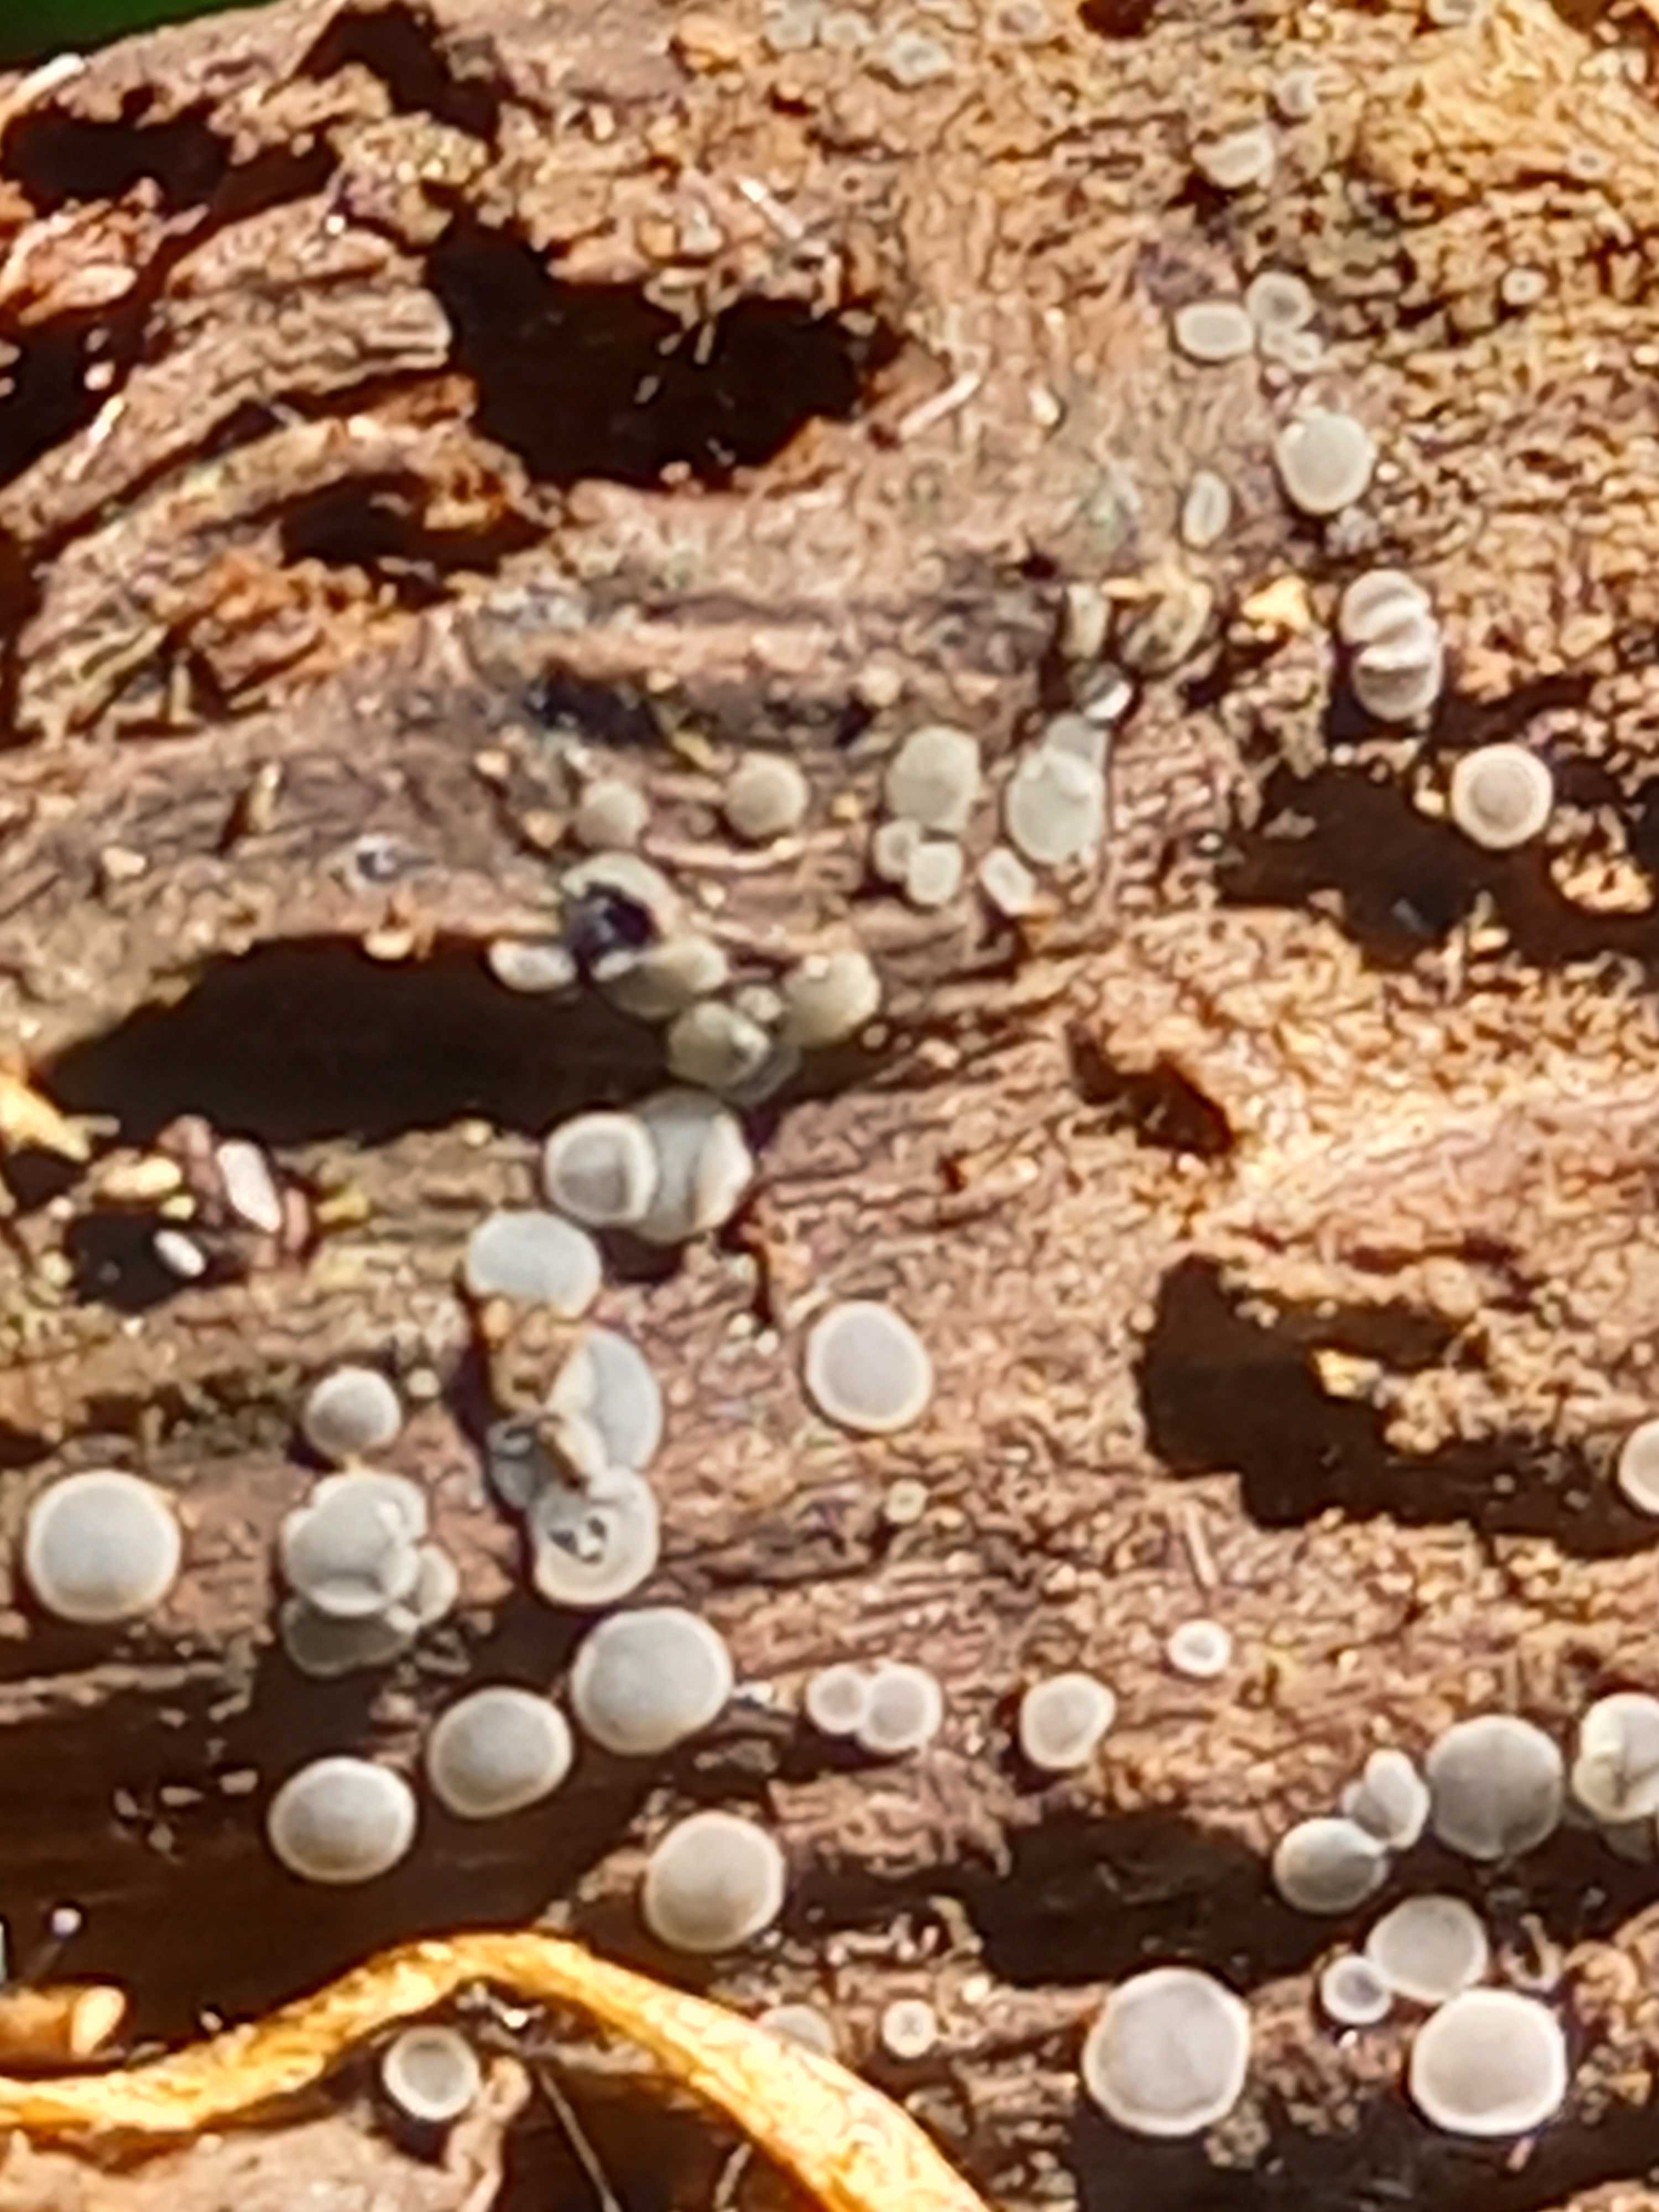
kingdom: Fungi
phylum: Ascomycota
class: Leotiomycetes
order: Helotiales
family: Mollisiaceae
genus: Mollisia
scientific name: Mollisia cinerea
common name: almindelig gråskive
